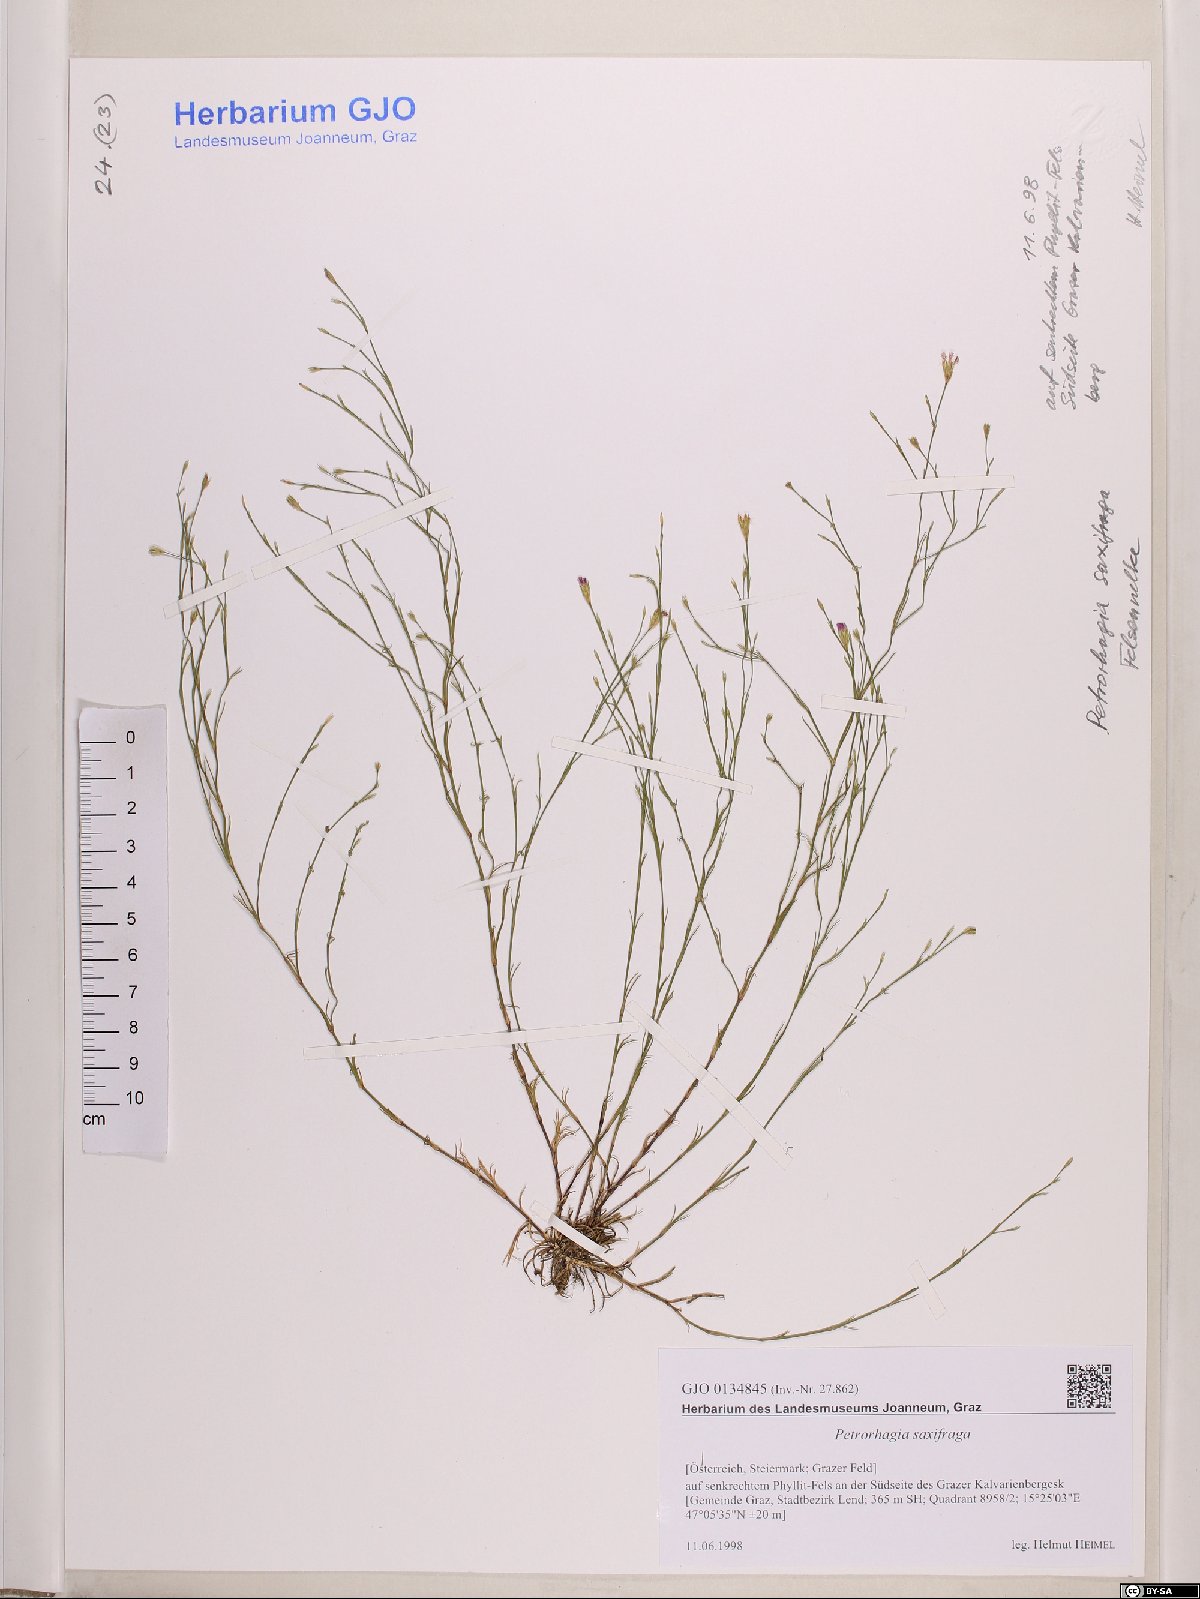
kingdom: Plantae
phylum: Tracheophyta
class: Magnoliopsida
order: Caryophyllales
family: Caryophyllaceae
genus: Petrorhagia
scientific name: Petrorhagia saxifraga
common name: Tunicflower
